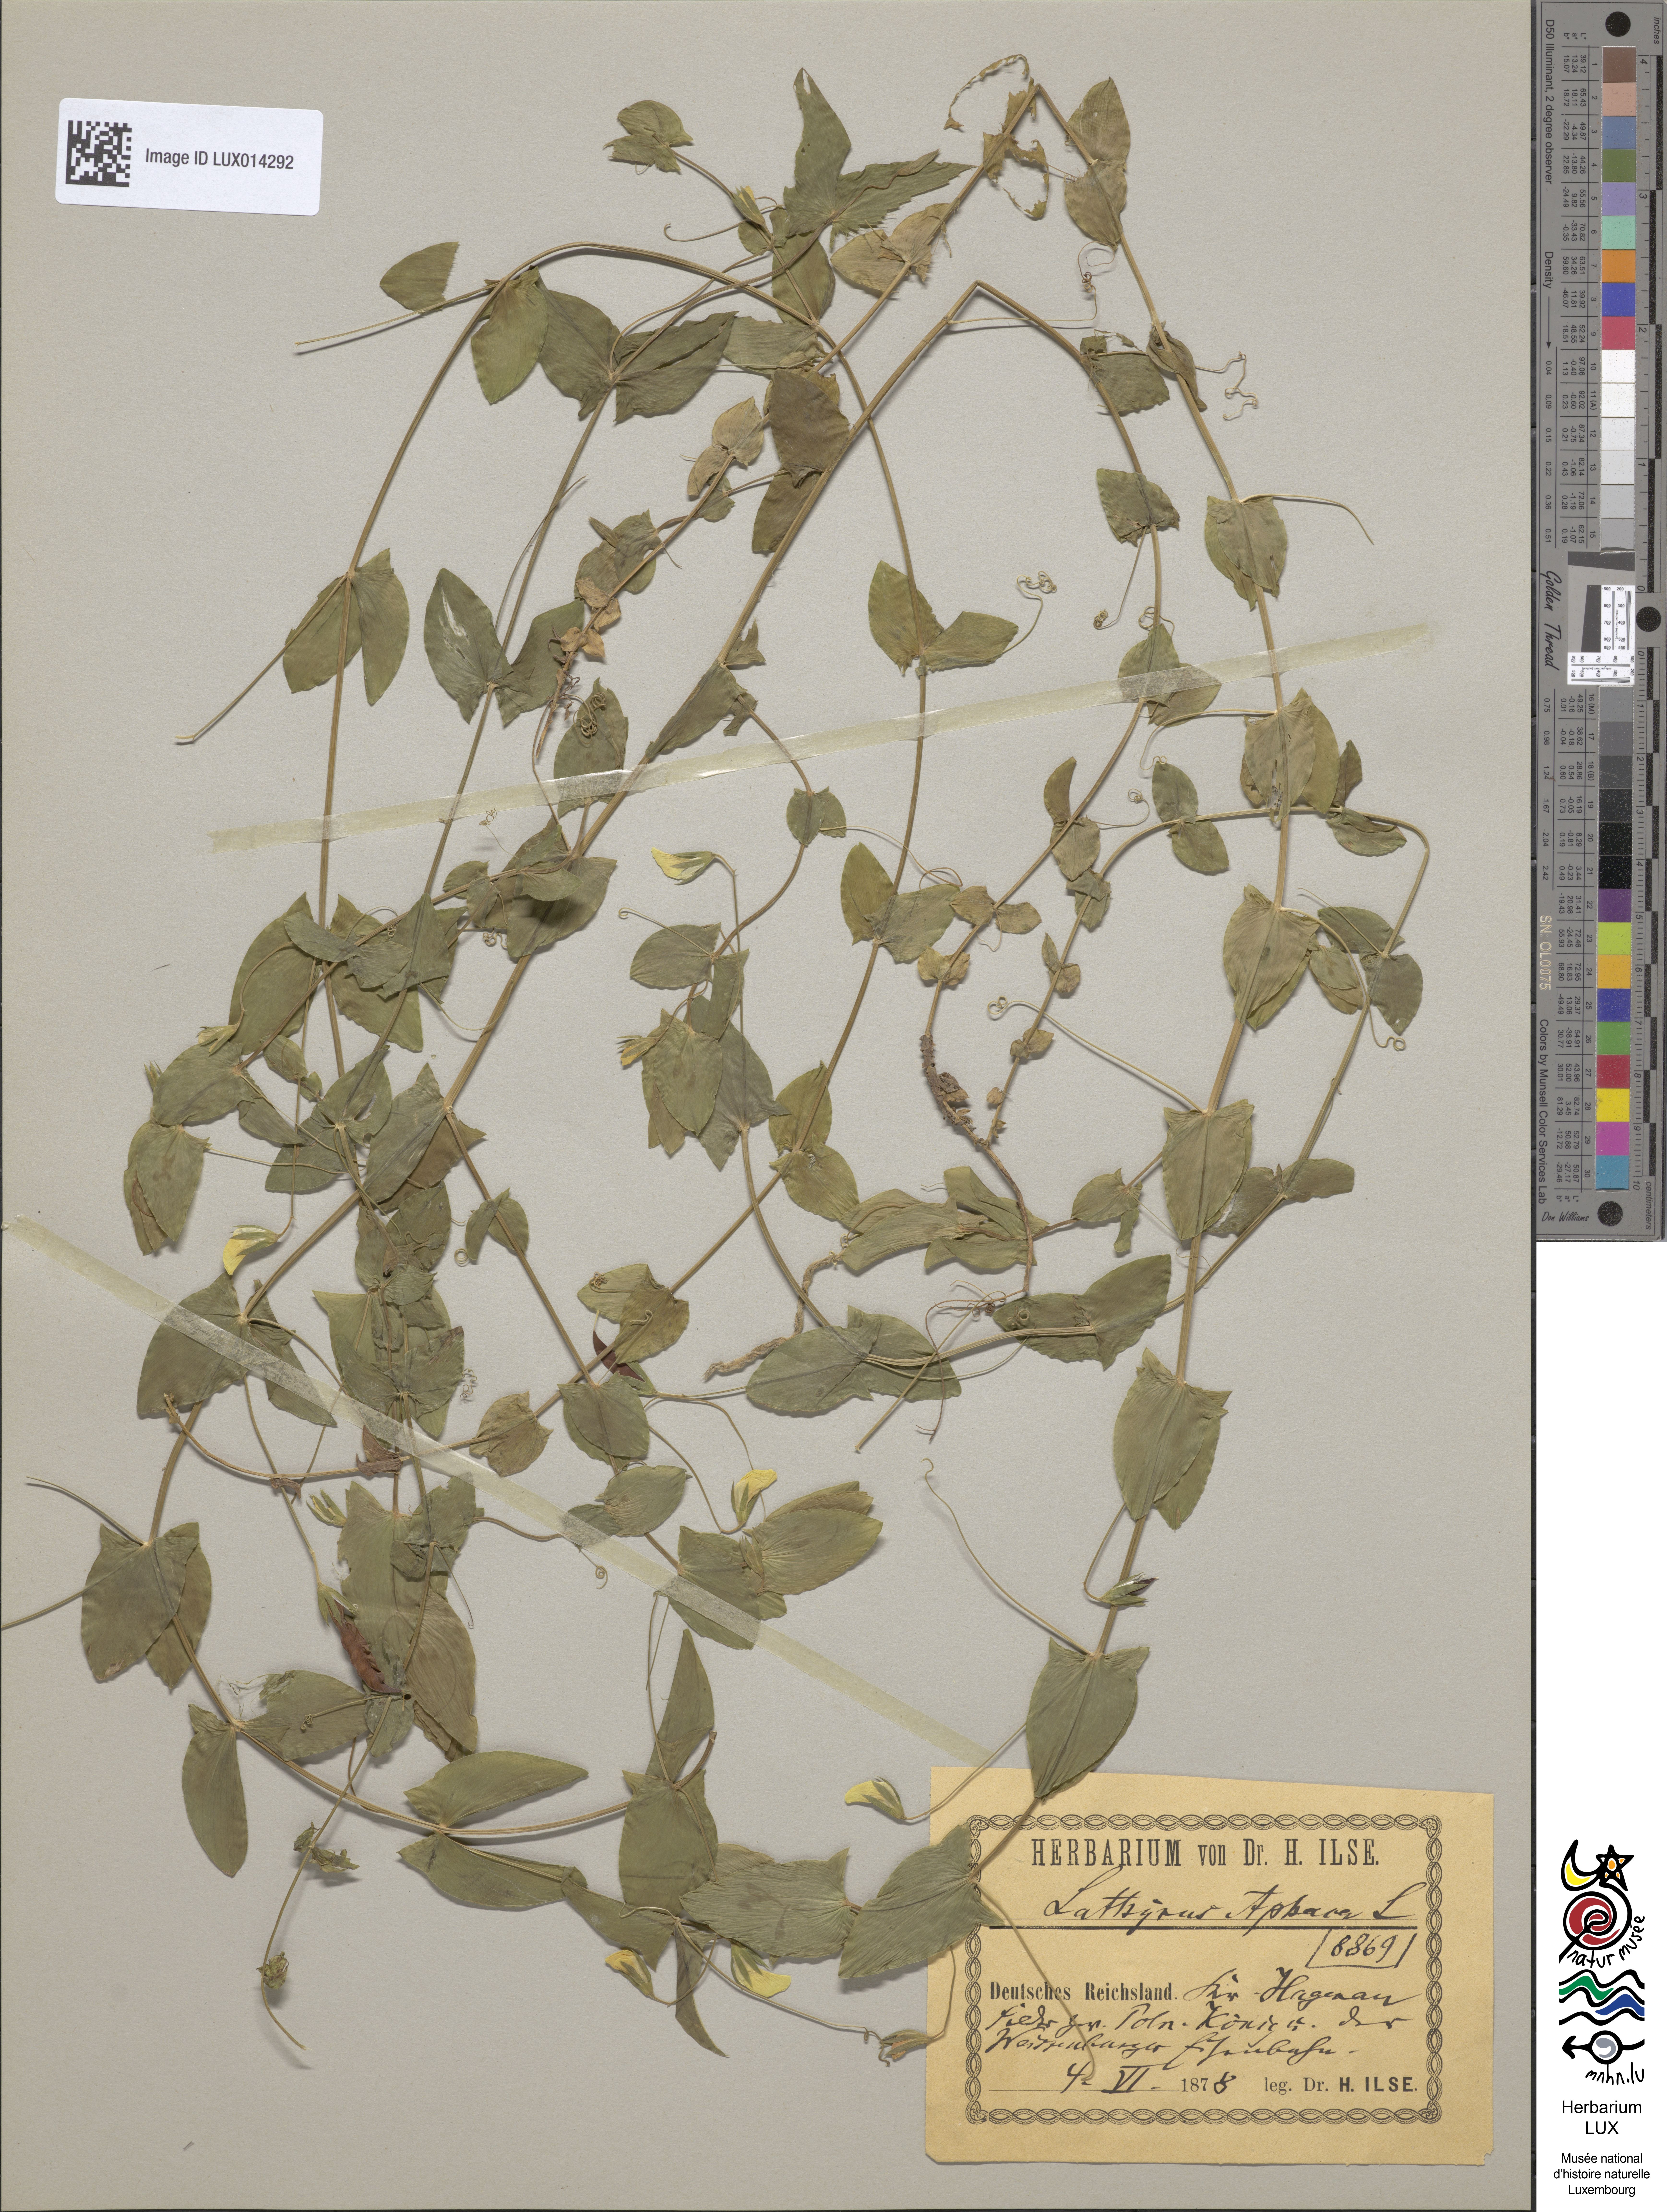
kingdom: Plantae
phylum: Tracheophyta
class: Magnoliopsida
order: Fabales
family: Fabaceae
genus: Lathyrus
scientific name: Lathyrus aphaca
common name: Yellow vetchling
